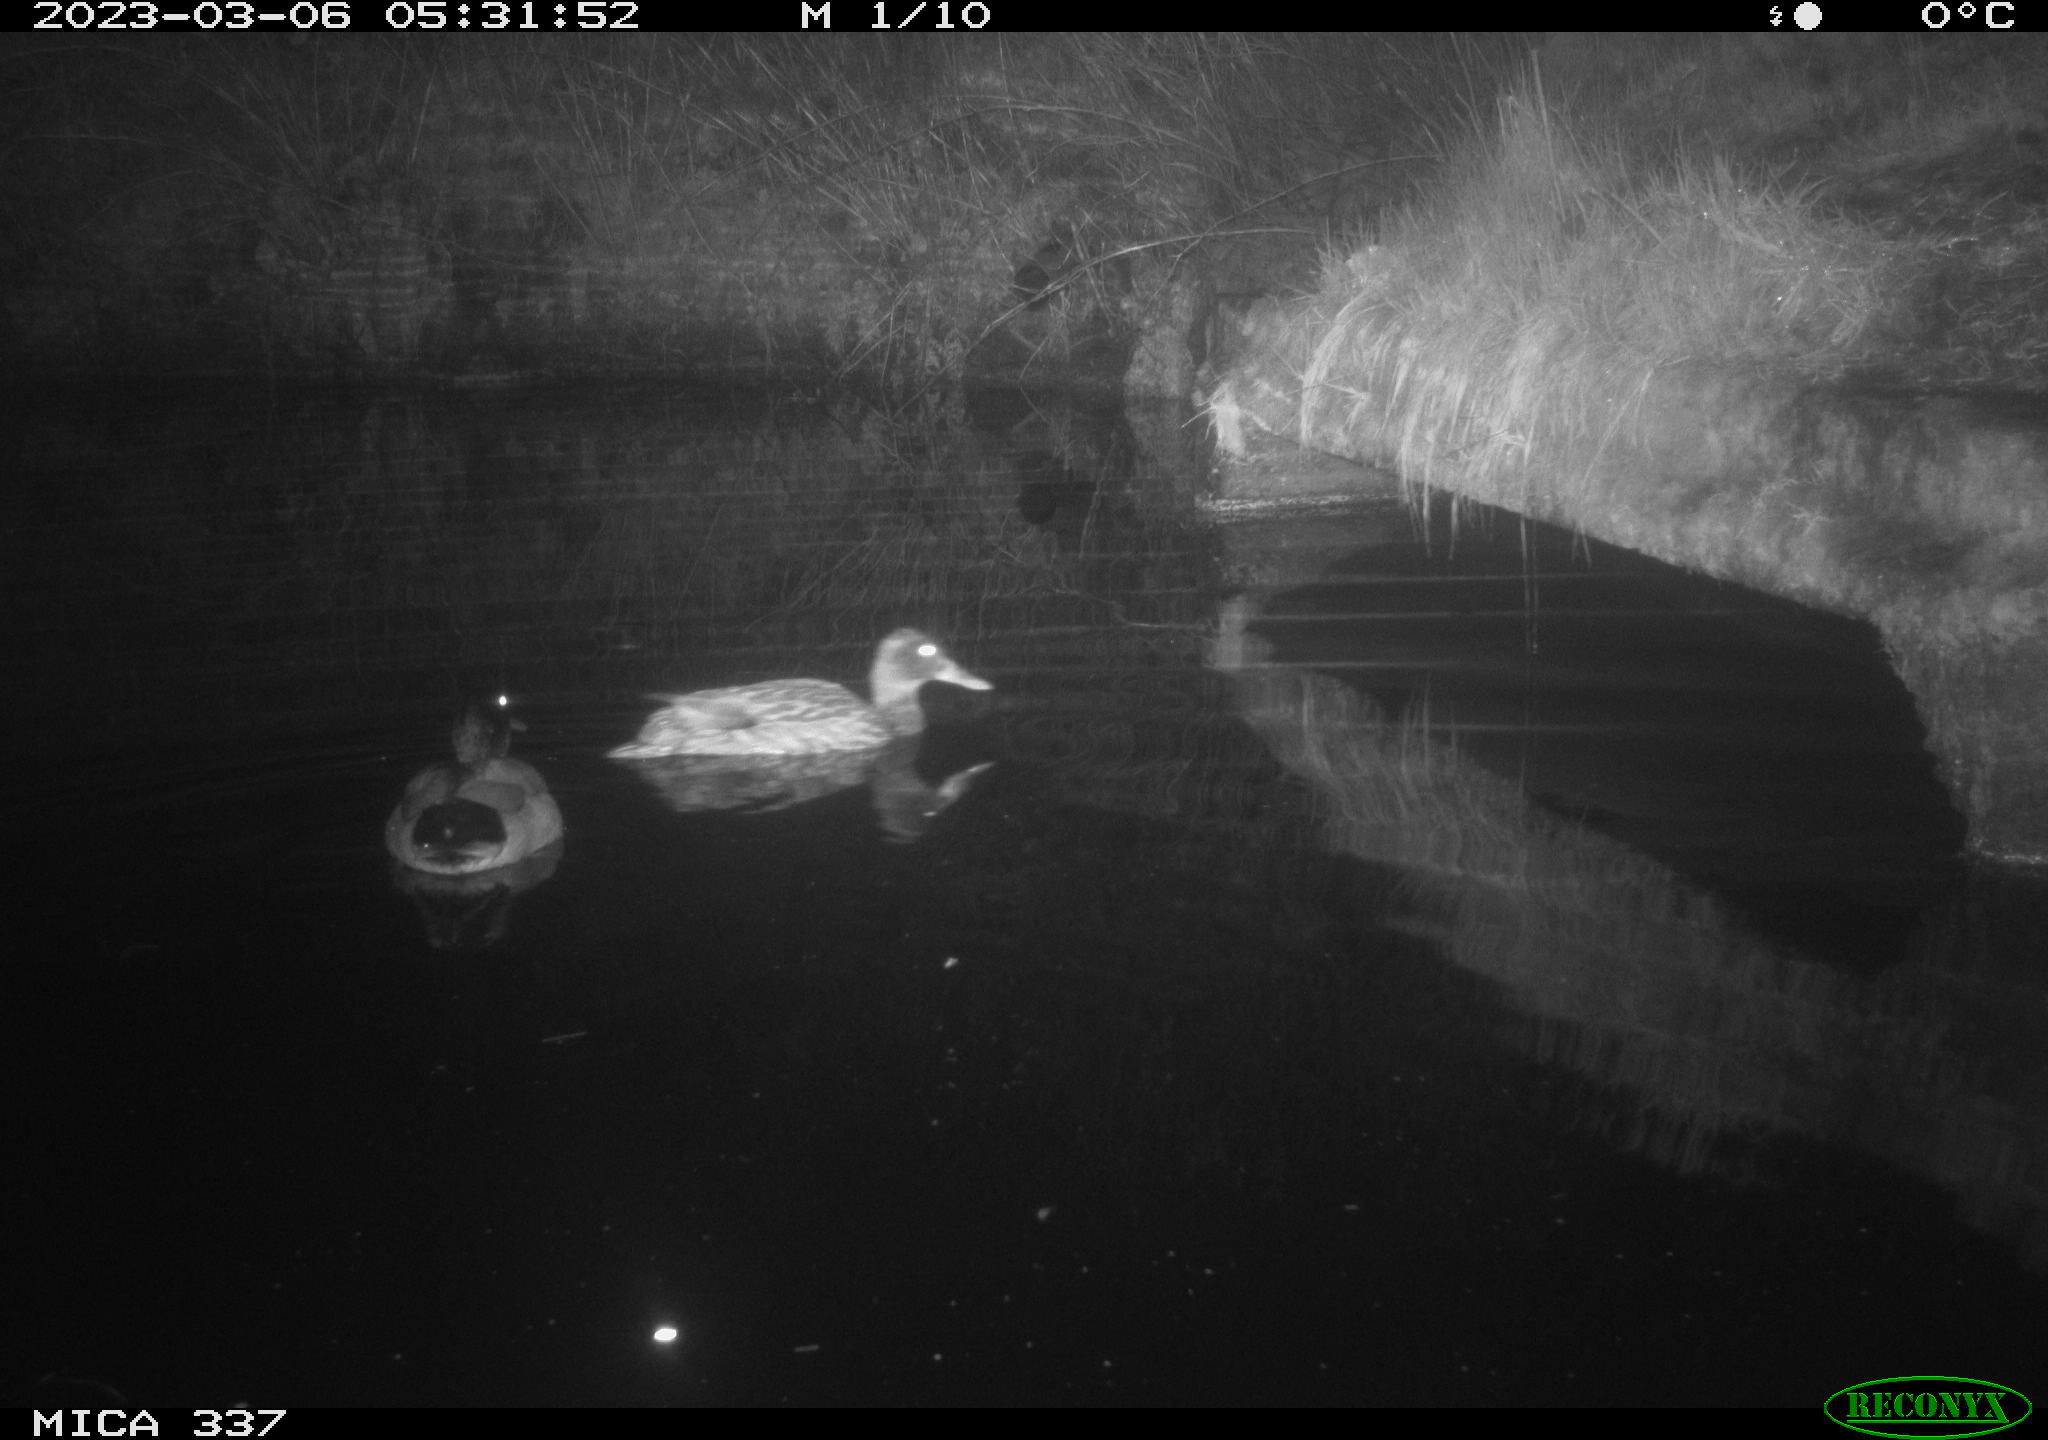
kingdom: Animalia
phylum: Chordata
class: Aves
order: Anseriformes
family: Anatidae
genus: Anas
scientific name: Anas
